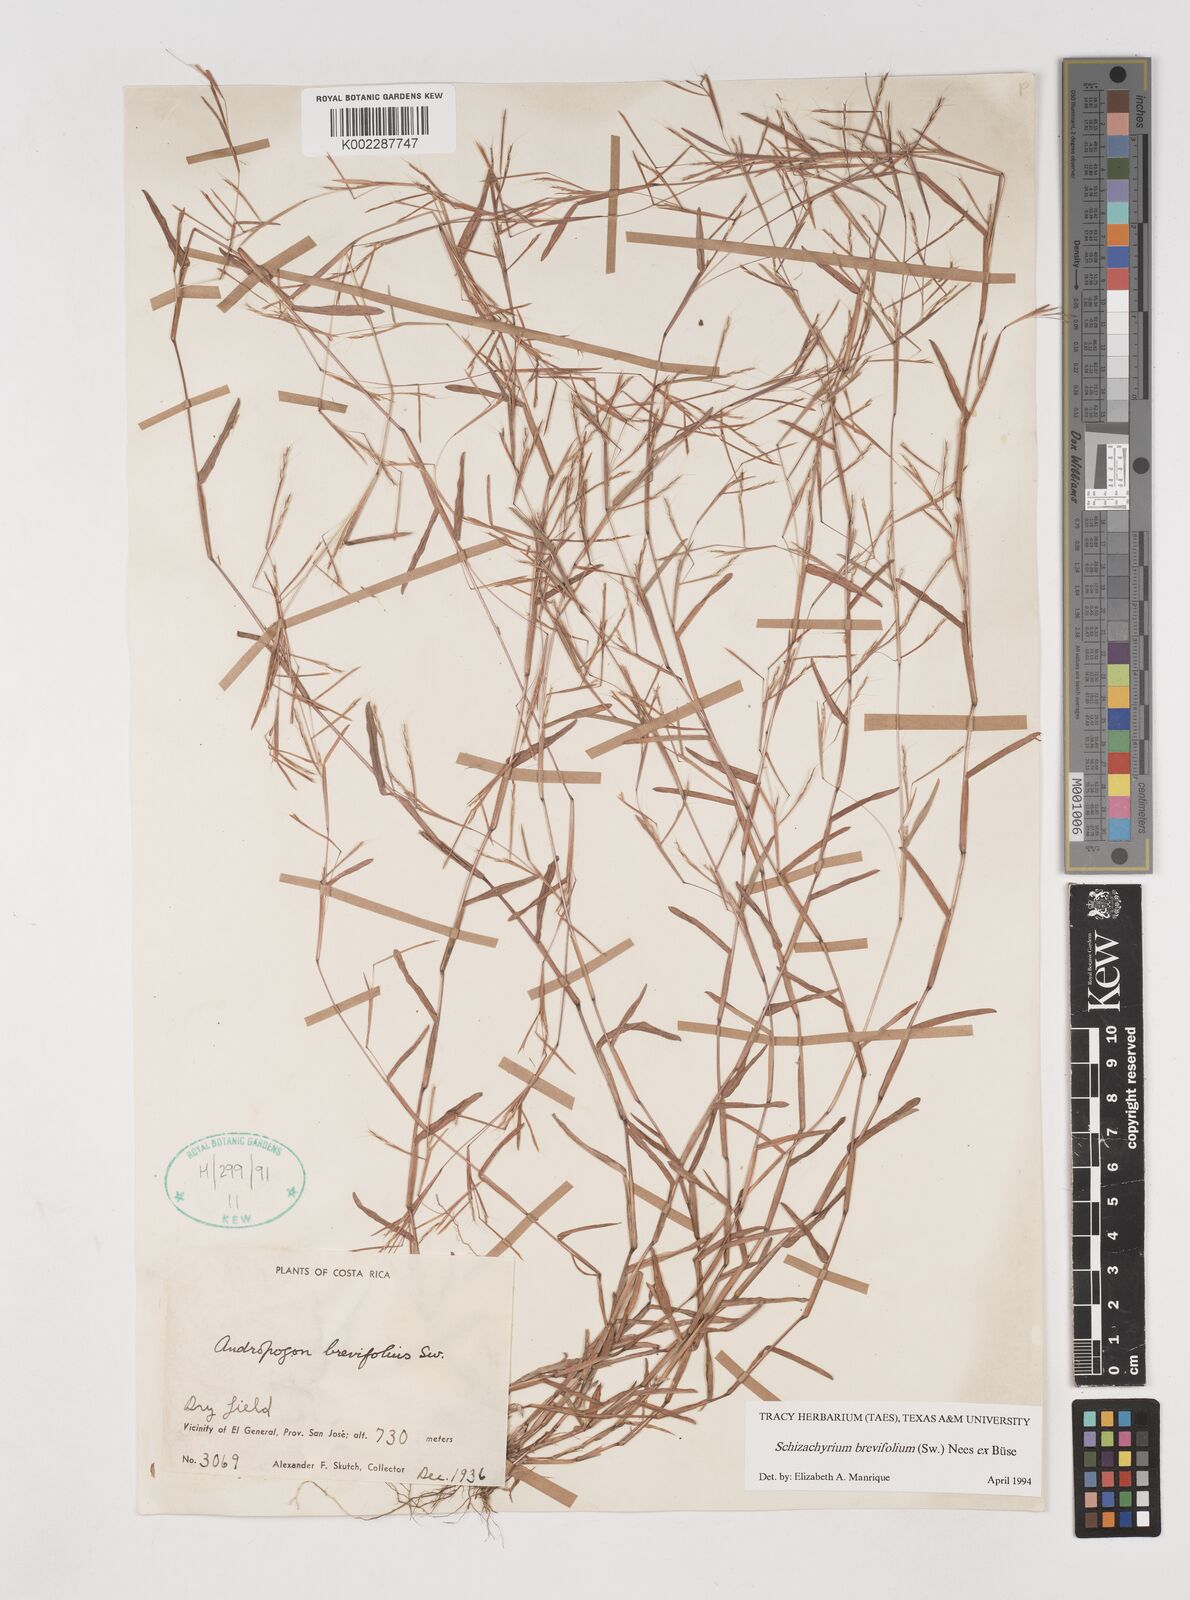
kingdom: Plantae
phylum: Tracheophyta
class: Liliopsida
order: Poales
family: Poaceae
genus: Schizachyrium
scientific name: Schizachyrium brevifolium
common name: Serillo dulce
